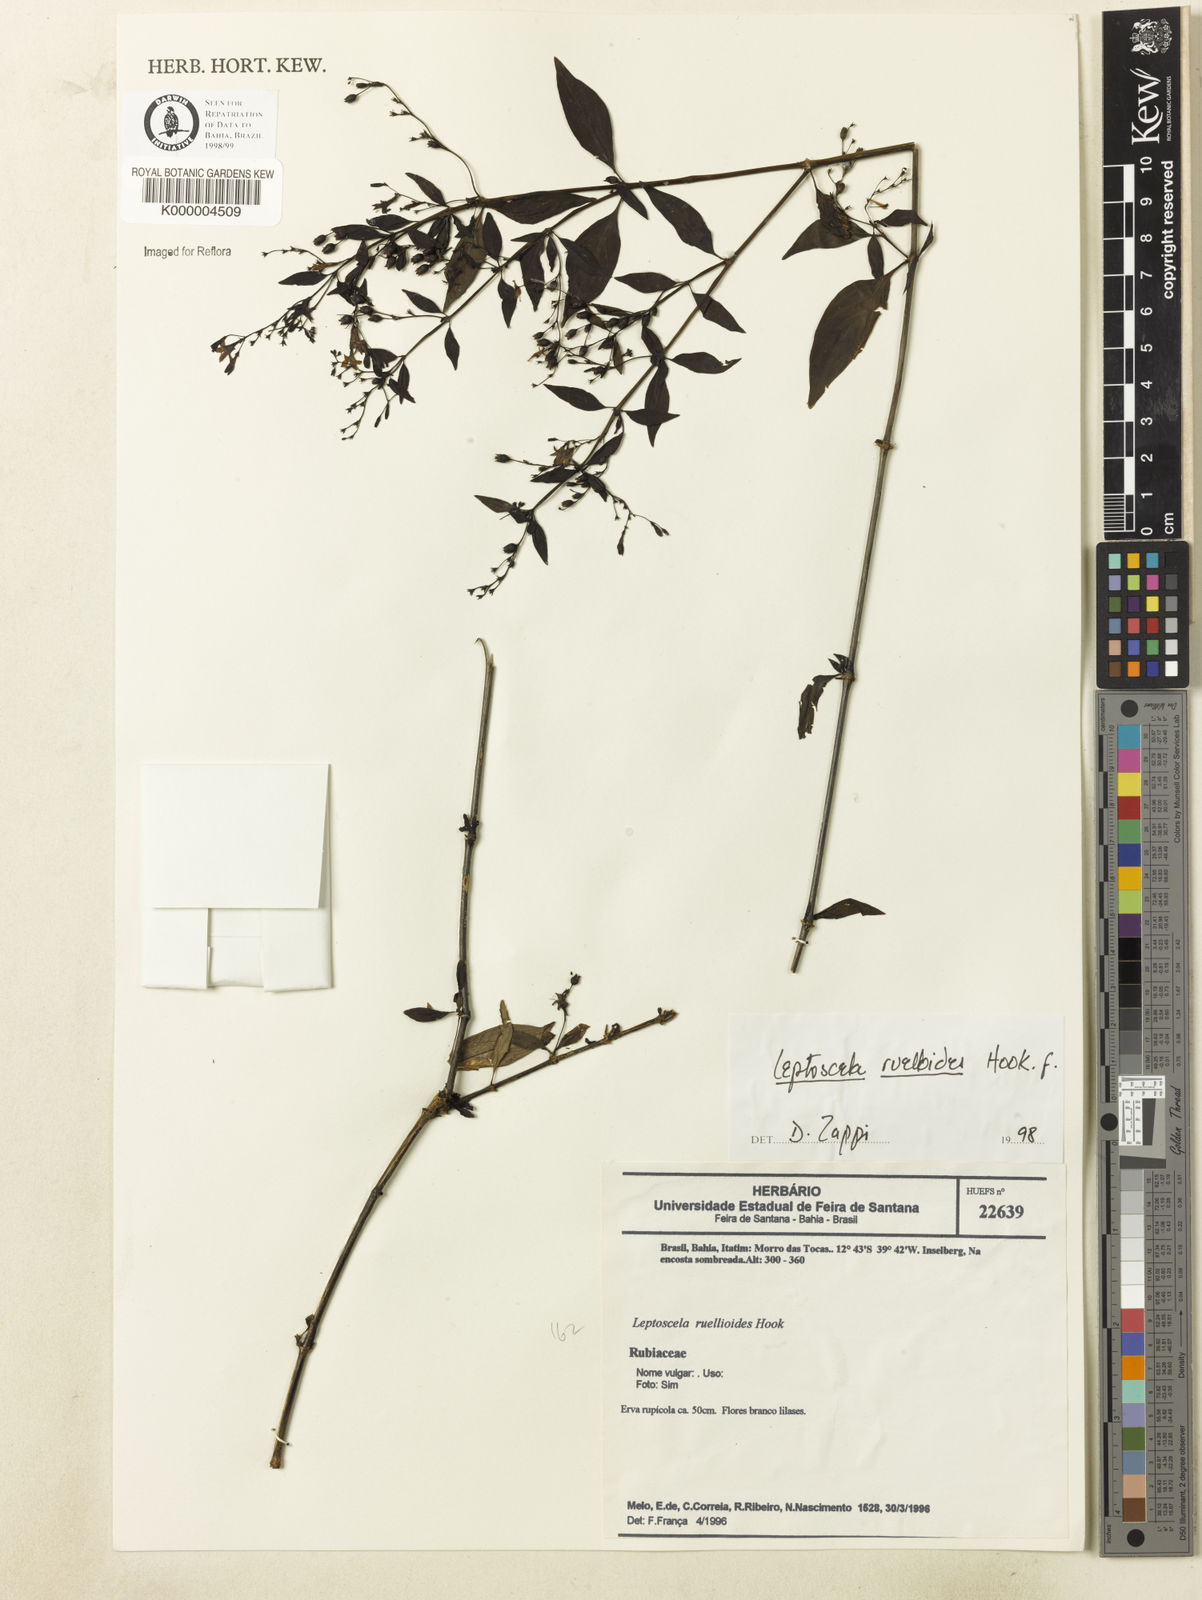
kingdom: Plantae
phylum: Tracheophyta
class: Magnoliopsida
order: Gentianales
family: Rubiaceae
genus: Leptoscela
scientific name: Leptoscela
